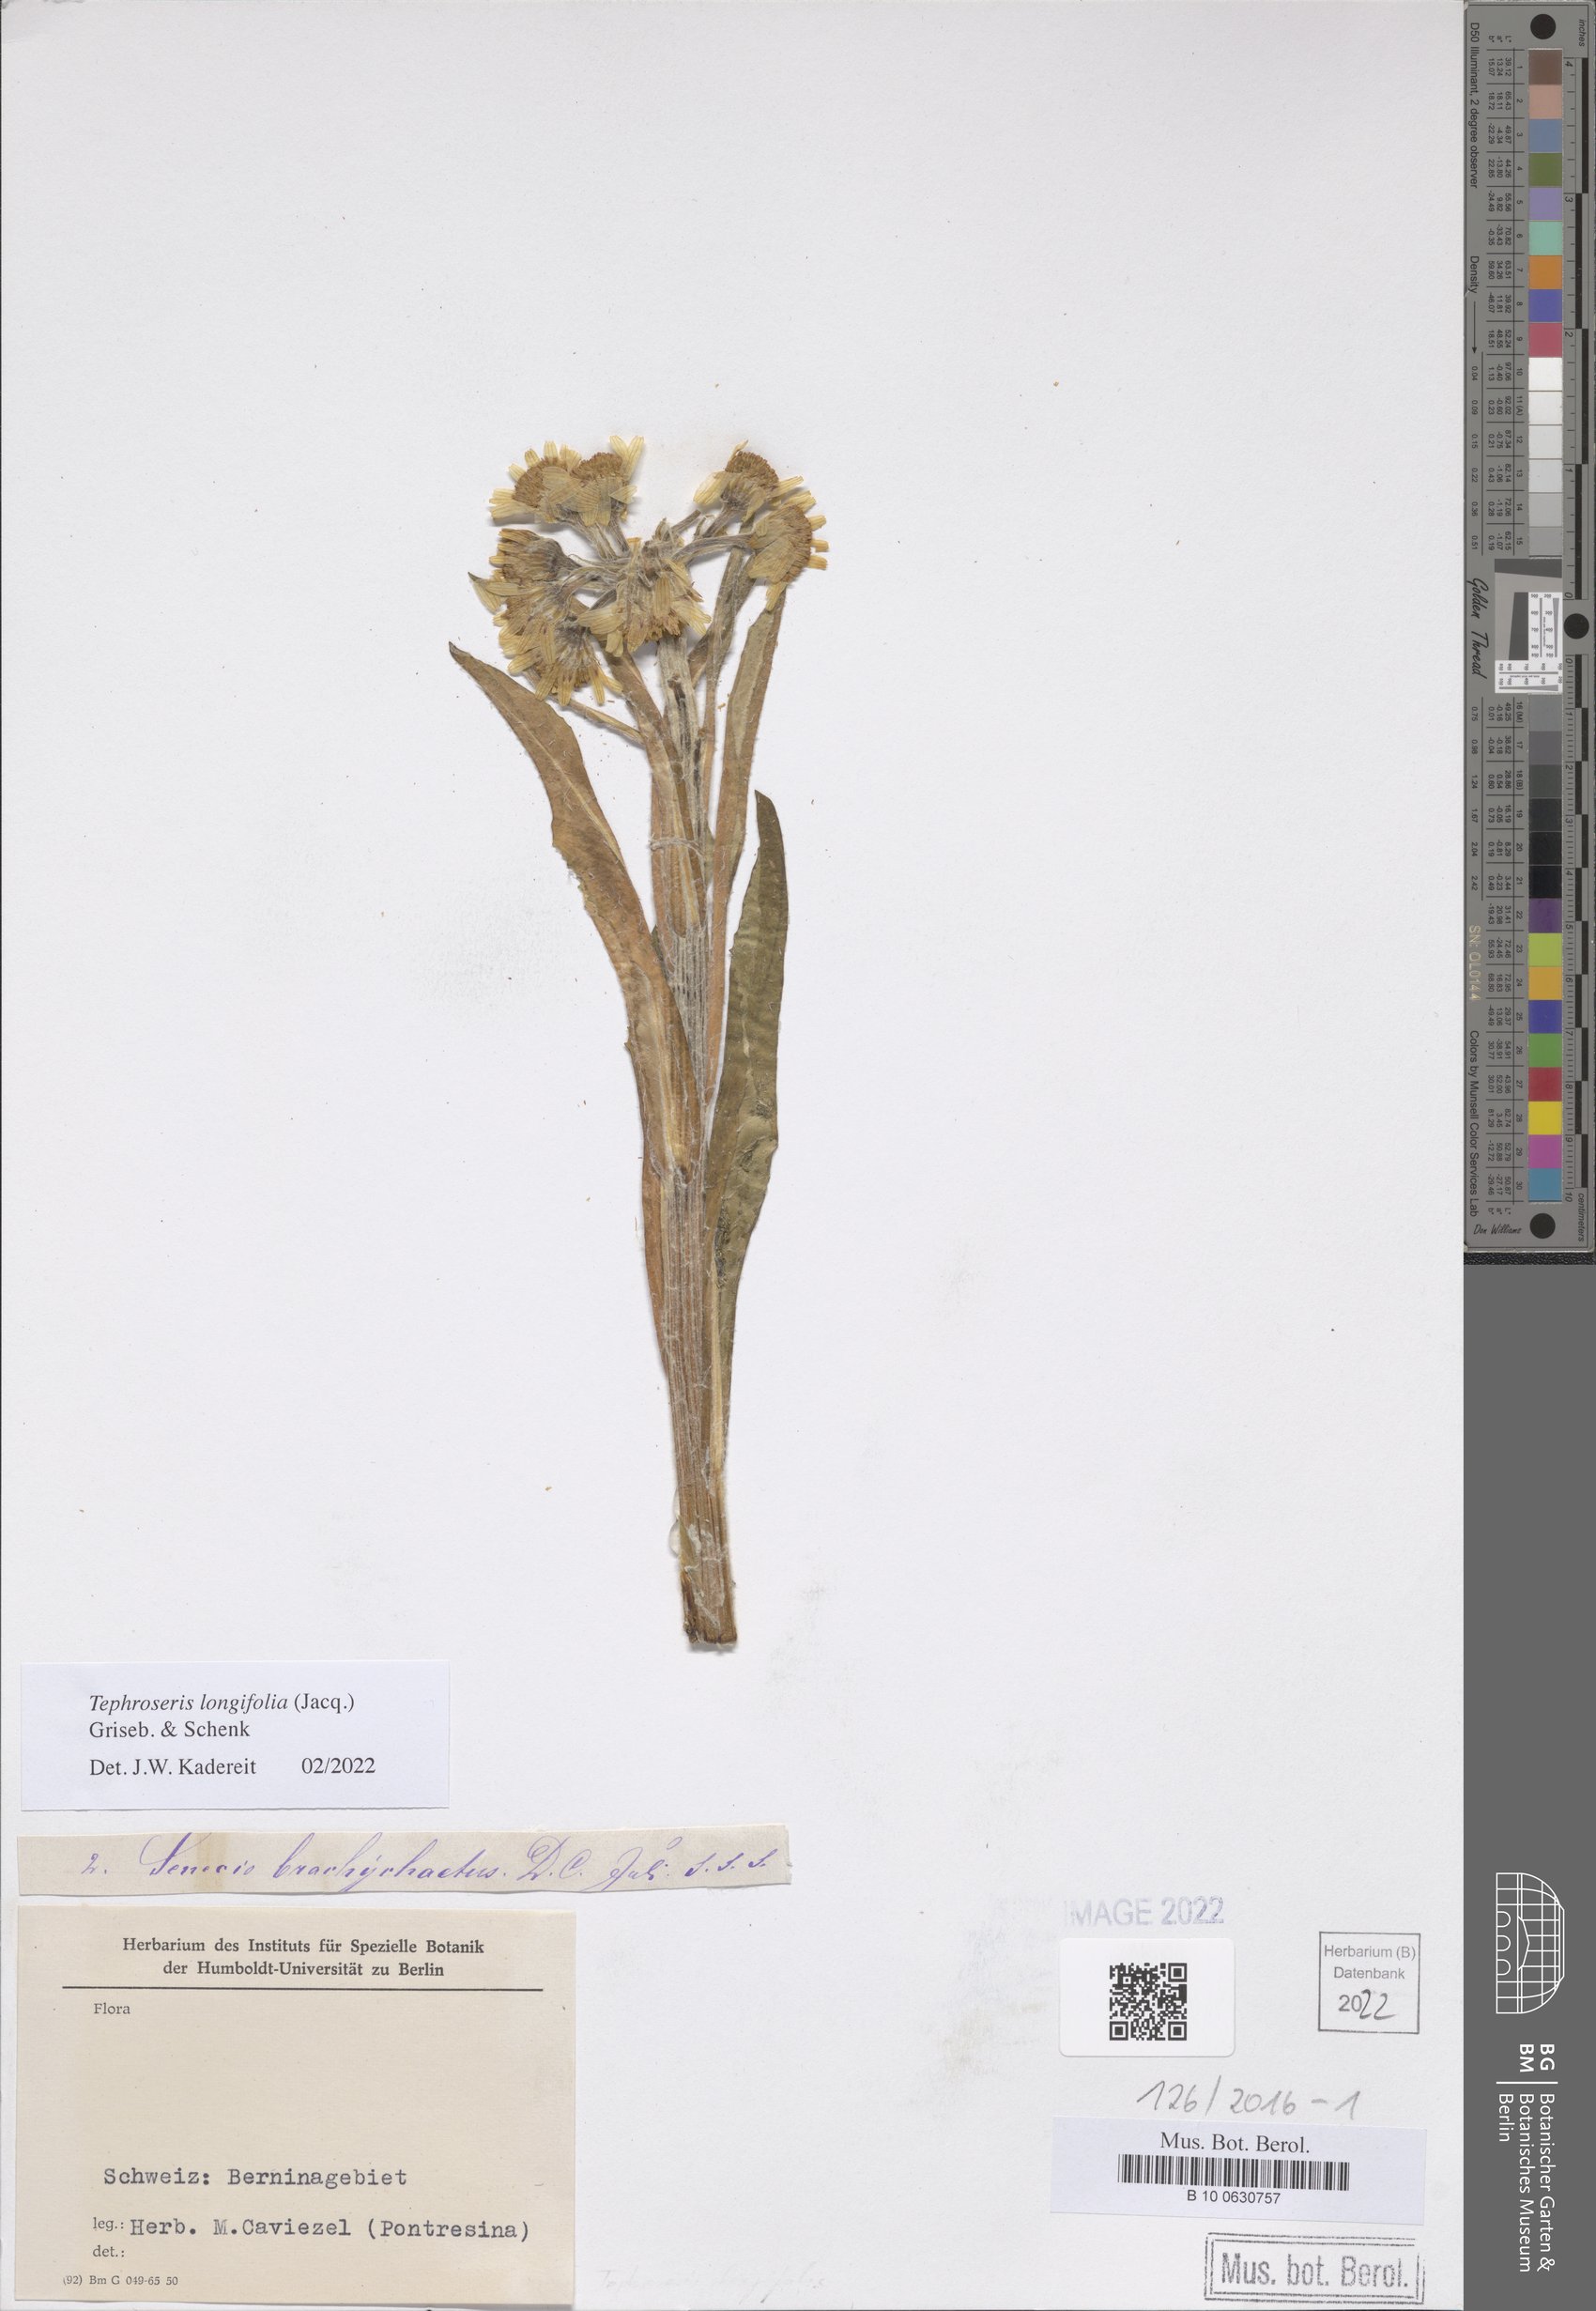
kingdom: Plantae
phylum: Tracheophyta
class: Magnoliopsida
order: Asterales
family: Asteraceae
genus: Tephroseris
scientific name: Tephroseris longifolia
